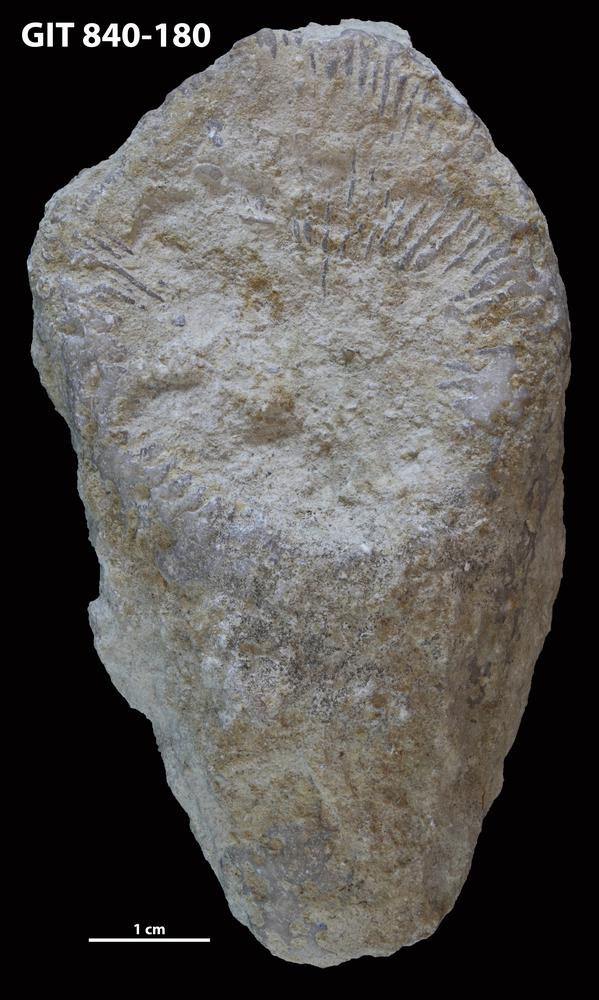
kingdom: Animalia
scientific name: Animalia
